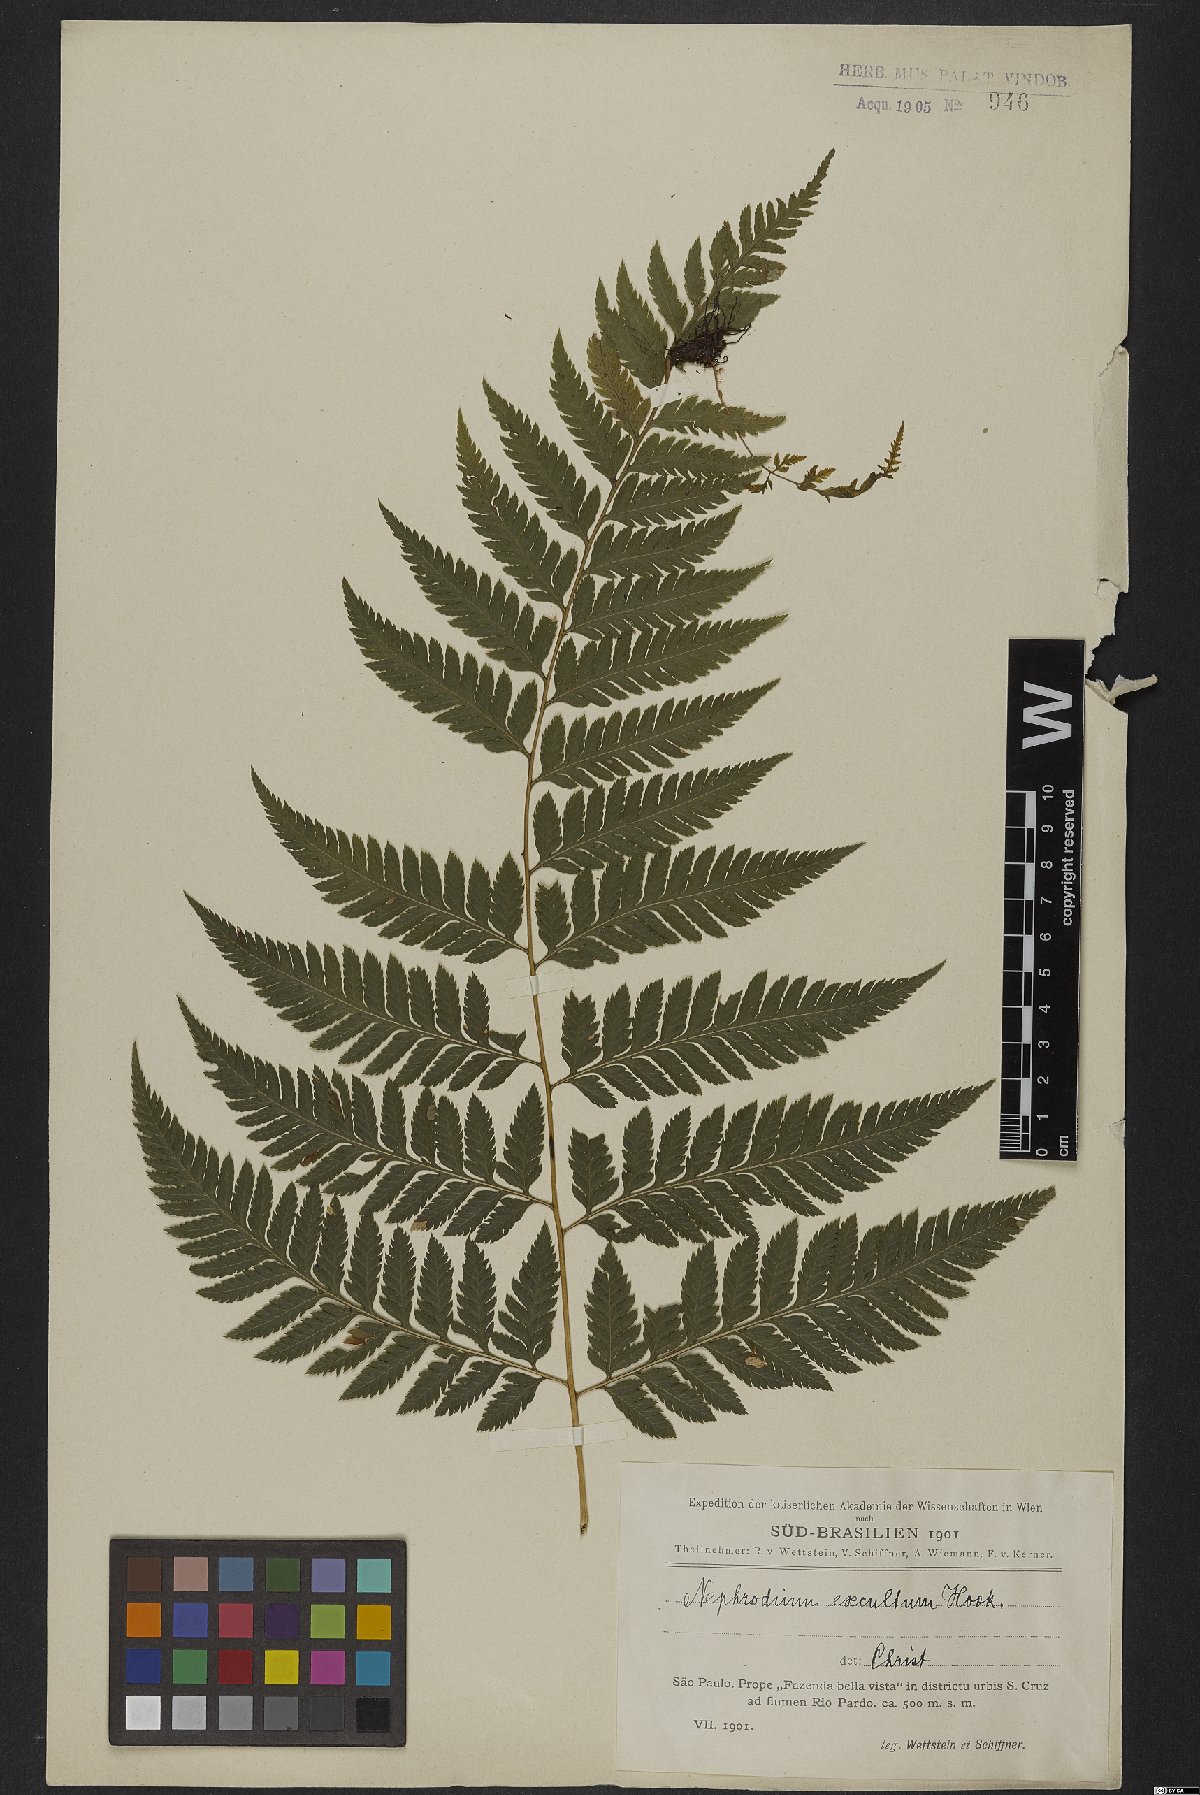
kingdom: Plantae
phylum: Tracheophyta
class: Polypodiopsida
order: Polypodiales
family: Dryopteridaceae
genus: Parapolystichum
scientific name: Parapolystichum effusum
